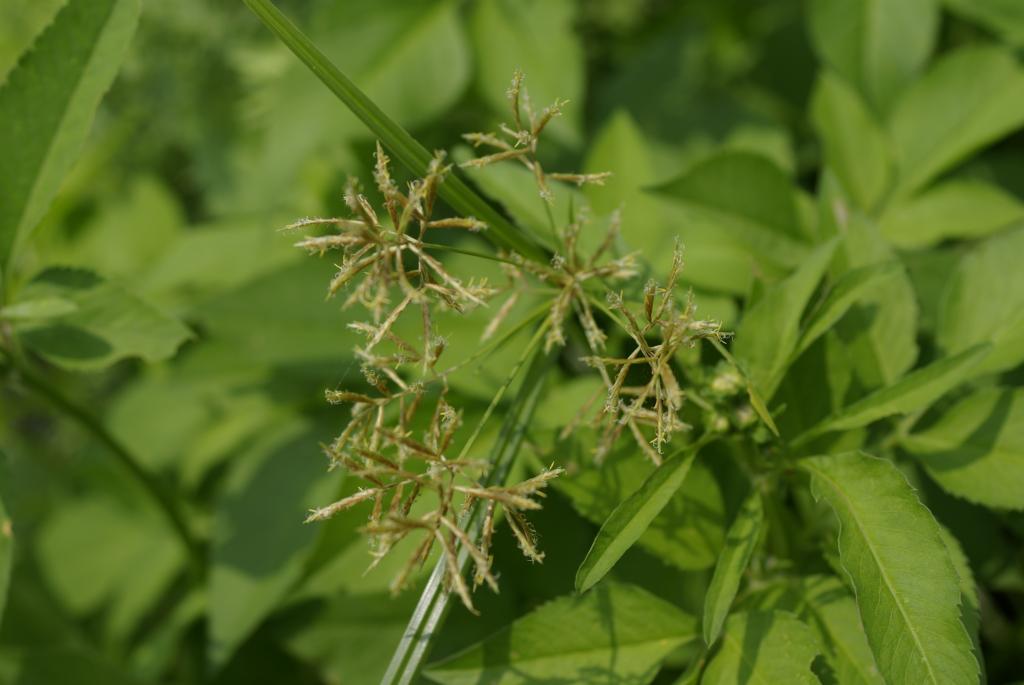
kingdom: Plantae
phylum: Tracheophyta
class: Liliopsida
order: Poales
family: Cyperaceae
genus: Cyperus
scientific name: Cyperus tuberosus
